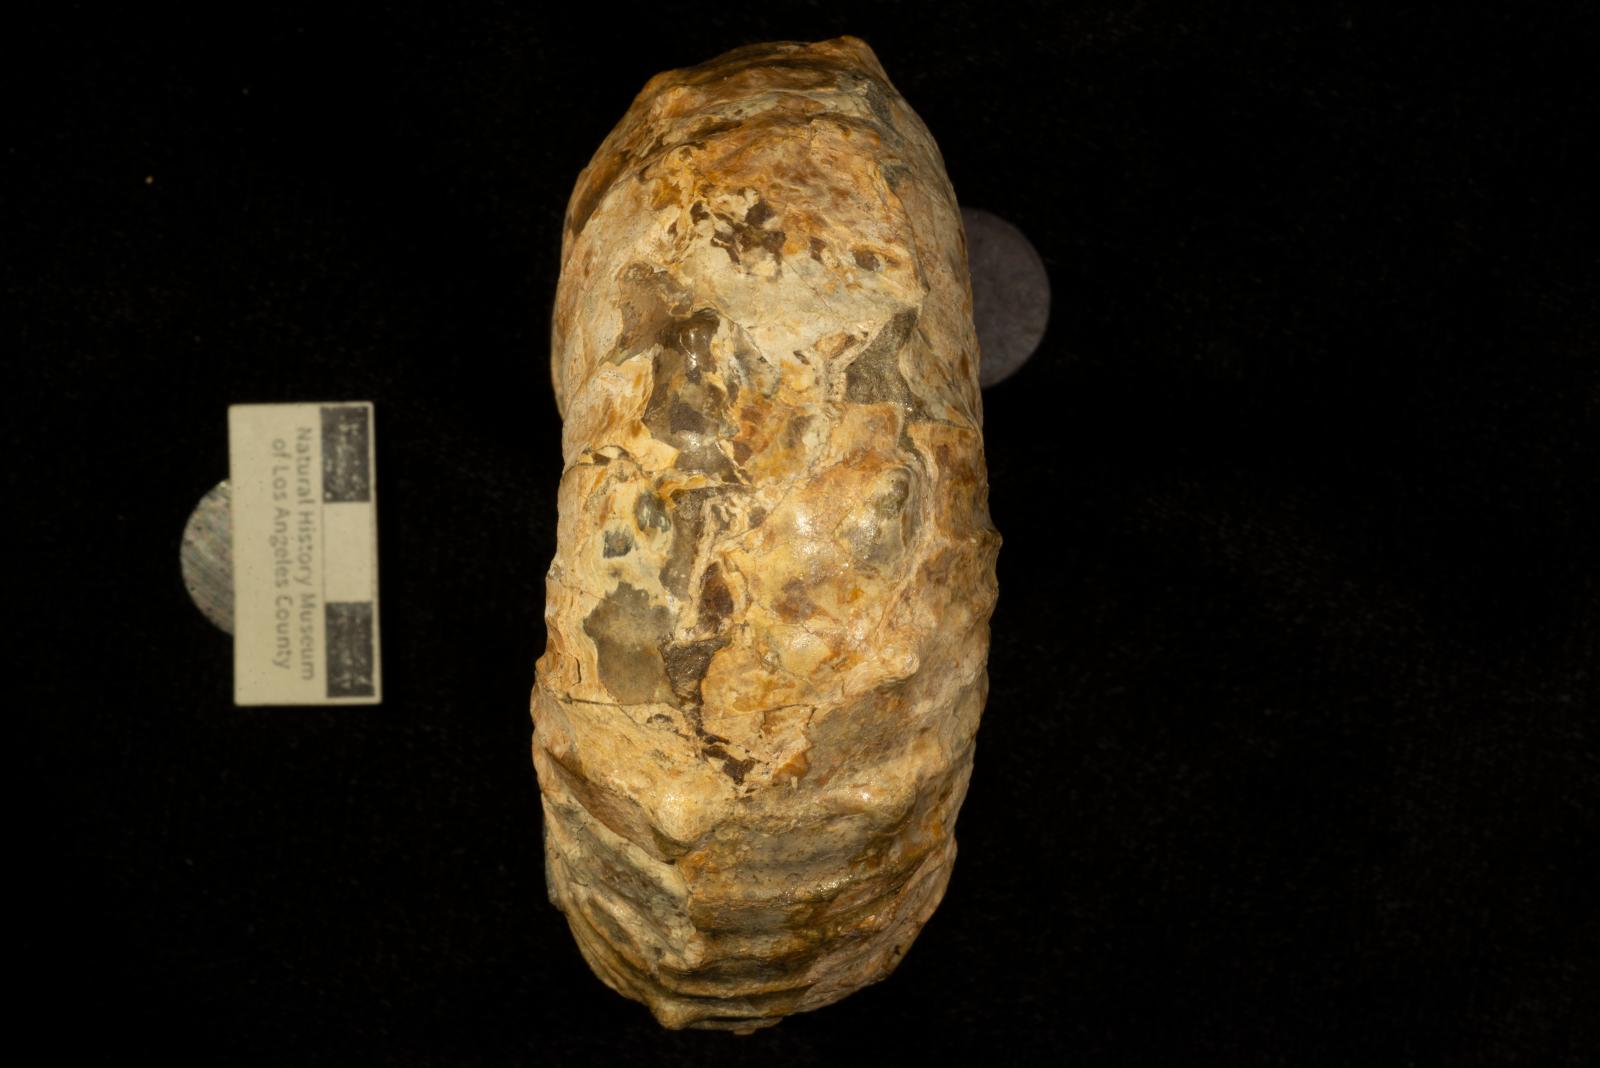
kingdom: Animalia
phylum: Mollusca
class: Cephalopoda
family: Nostoceratidae
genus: Didymoceras
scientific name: Didymoceras draconis
